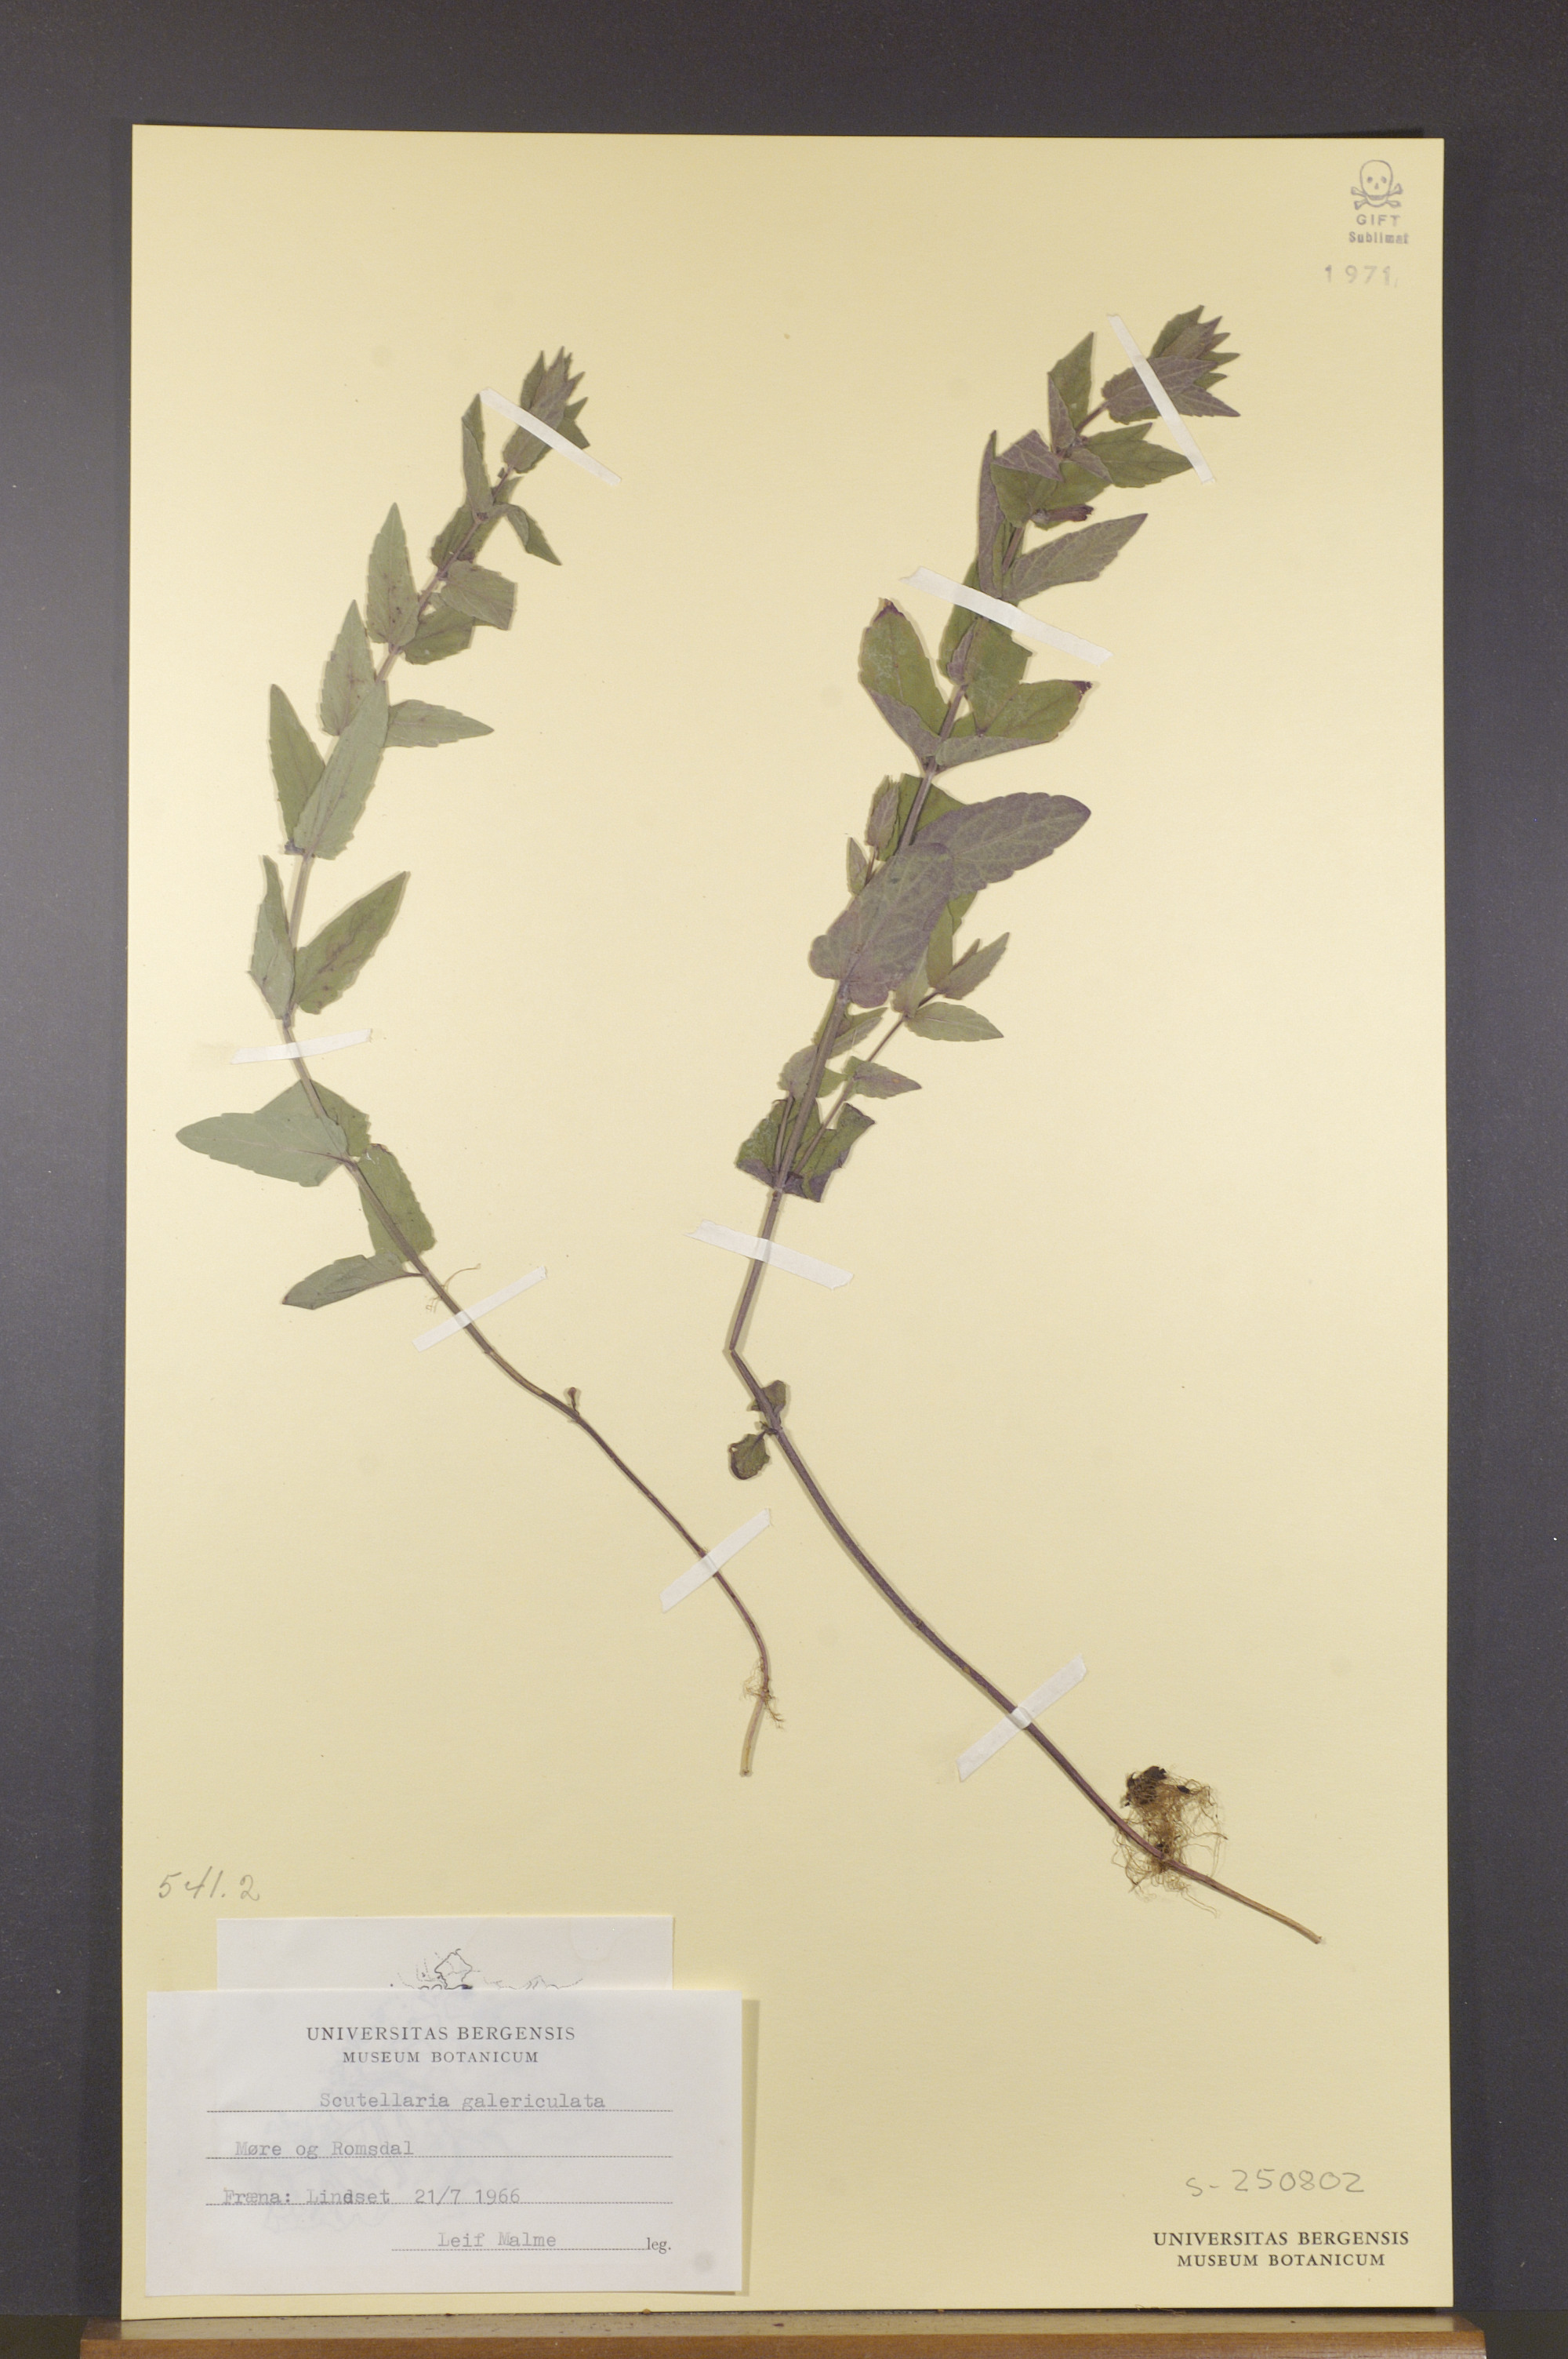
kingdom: Plantae
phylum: Tracheophyta
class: Magnoliopsida
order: Lamiales
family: Lamiaceae
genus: Scutellaria
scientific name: Scutellaria galericulata
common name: Skullcap
